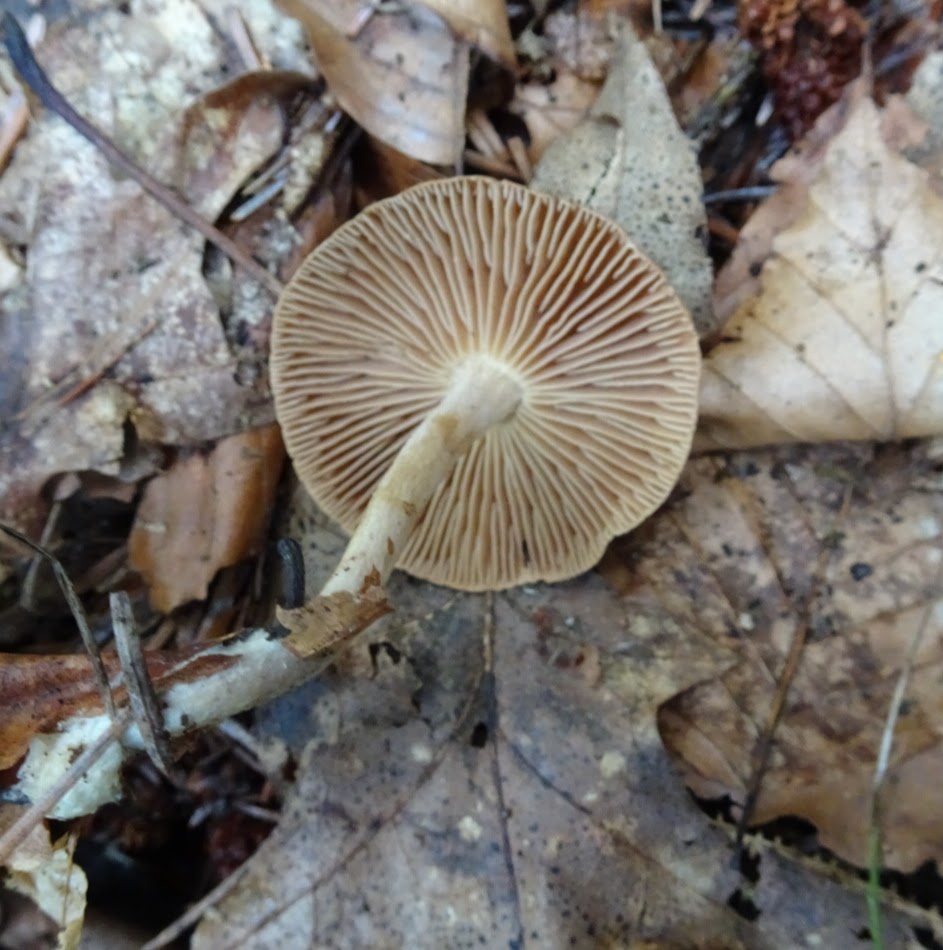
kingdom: Fungi
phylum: Basidiomycota
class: Agaricomycetes
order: Agaricales
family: Omphalotaceae
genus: Collybiopsis
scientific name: Collybiopsis peronata
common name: bestøvlet fladhat
